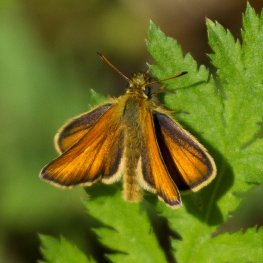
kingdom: Animalia
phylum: Arthropoda
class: Insecta
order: Lepidoptera
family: Hesperiidae
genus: Thymelicus
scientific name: Thymelicus lineola
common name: European Skipper
